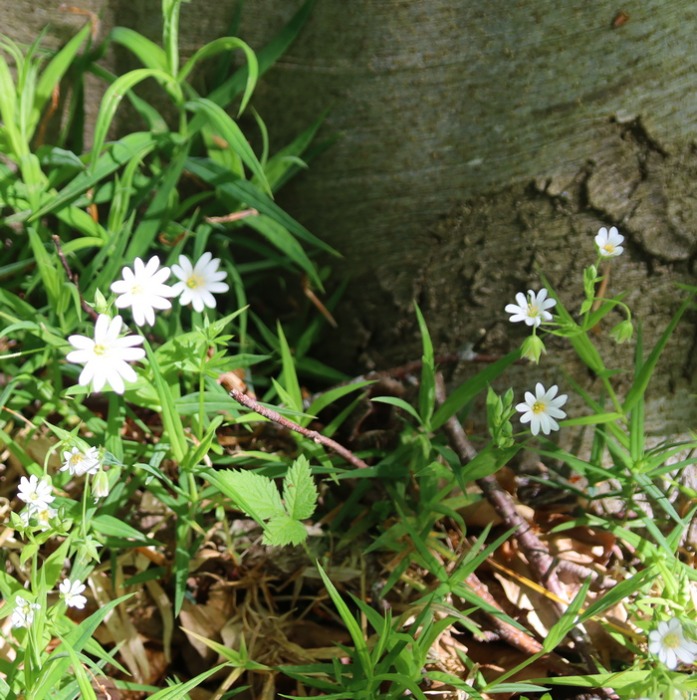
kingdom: Plantae
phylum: Tracheophyta
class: Magnoliopsida
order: Caryophyllales
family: Caryophyllaceae
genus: Rabelera
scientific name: Rabelera holostea
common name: Stor fladstjerne
